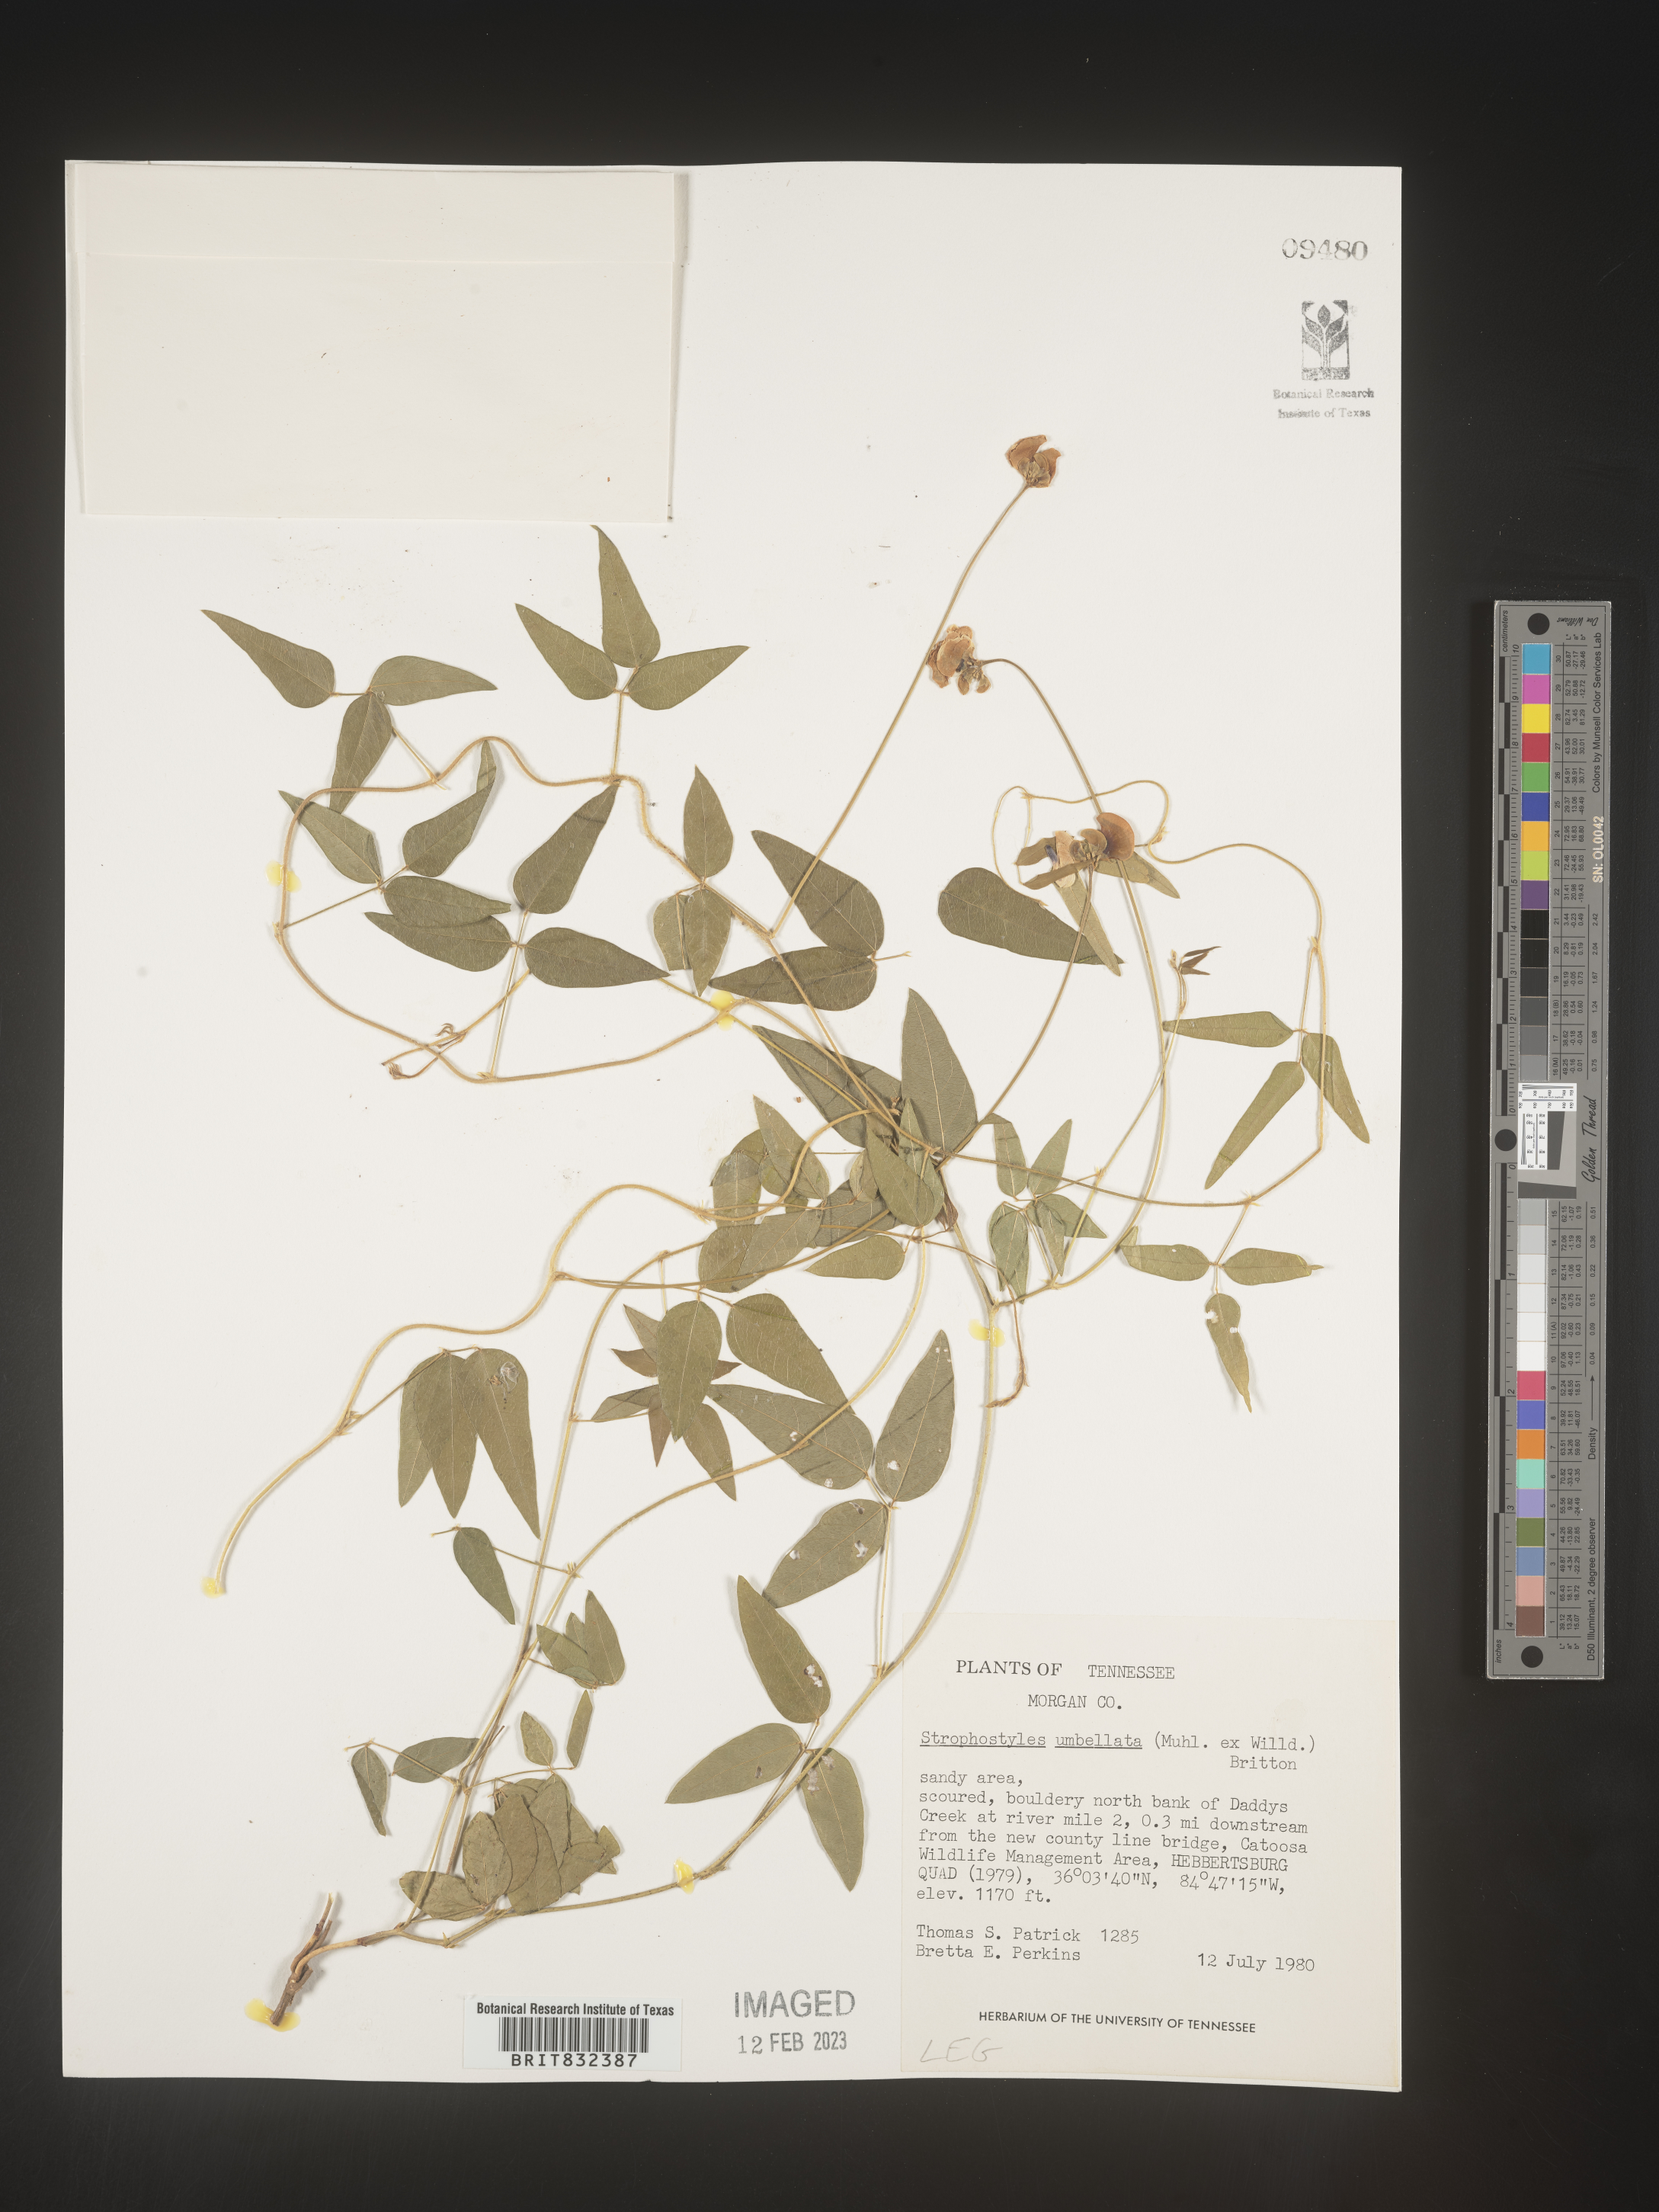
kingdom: Plantae
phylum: Tracheophyta
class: Magnoliopsida
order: Fabales
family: Fabaceae
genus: Strophostyles
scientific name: Strophostyles umbellata
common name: Perennial wild bean
